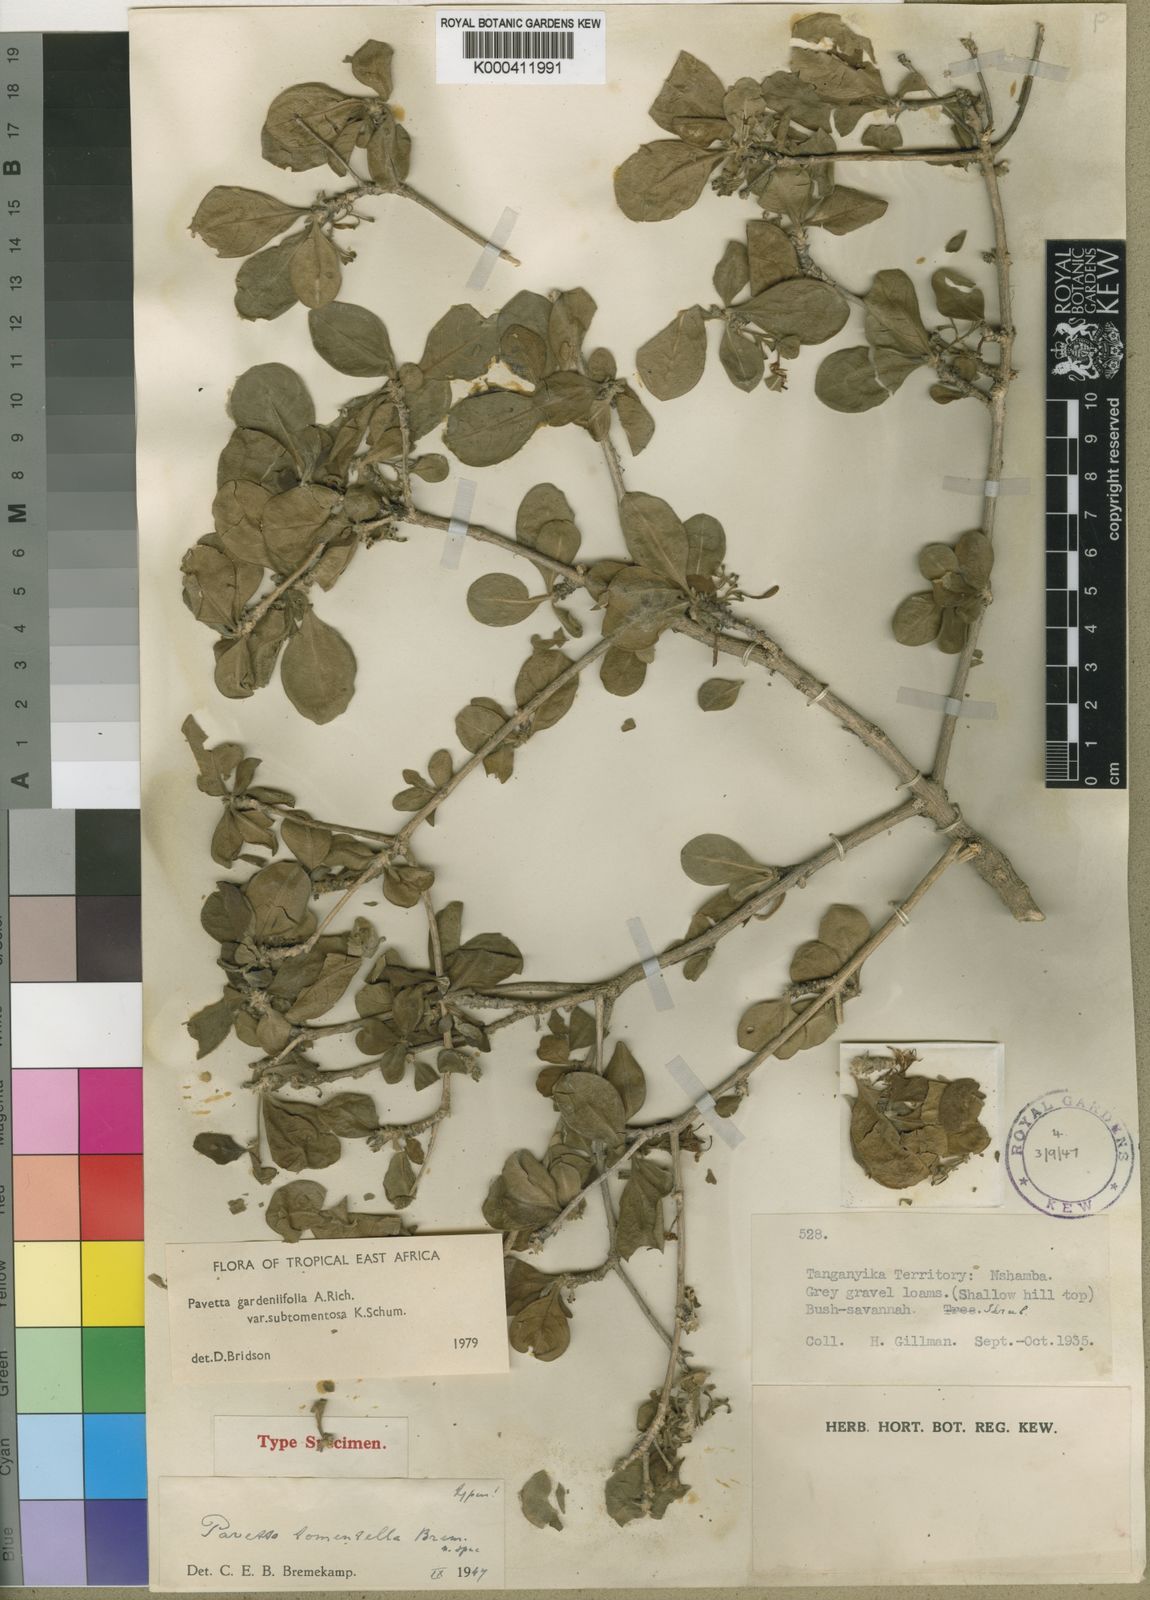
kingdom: Plantae
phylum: Tracheophyta
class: Magnoliopsida
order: Gentianales
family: Rubiaceae
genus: Pavetta
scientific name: Pavetta
